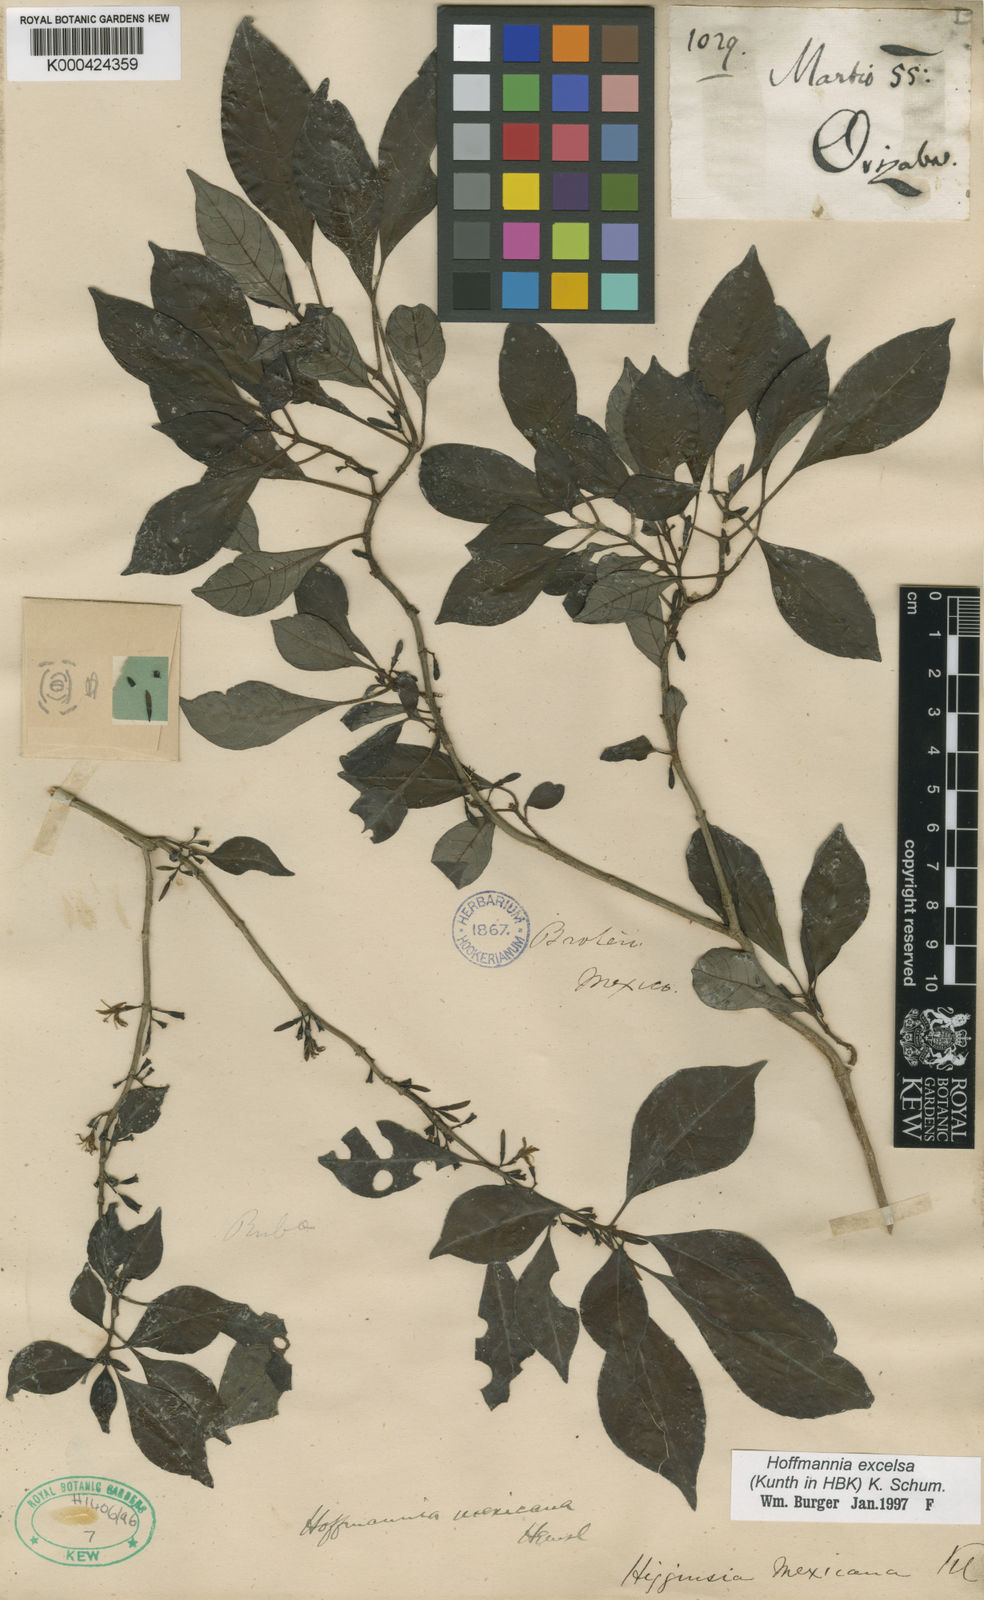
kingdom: Plantae
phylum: Tracheophyta
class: Magnoliopsida
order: Gentianales
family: Rubiaceae
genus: Hoffmannia
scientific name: Hoffmannia excelsa
